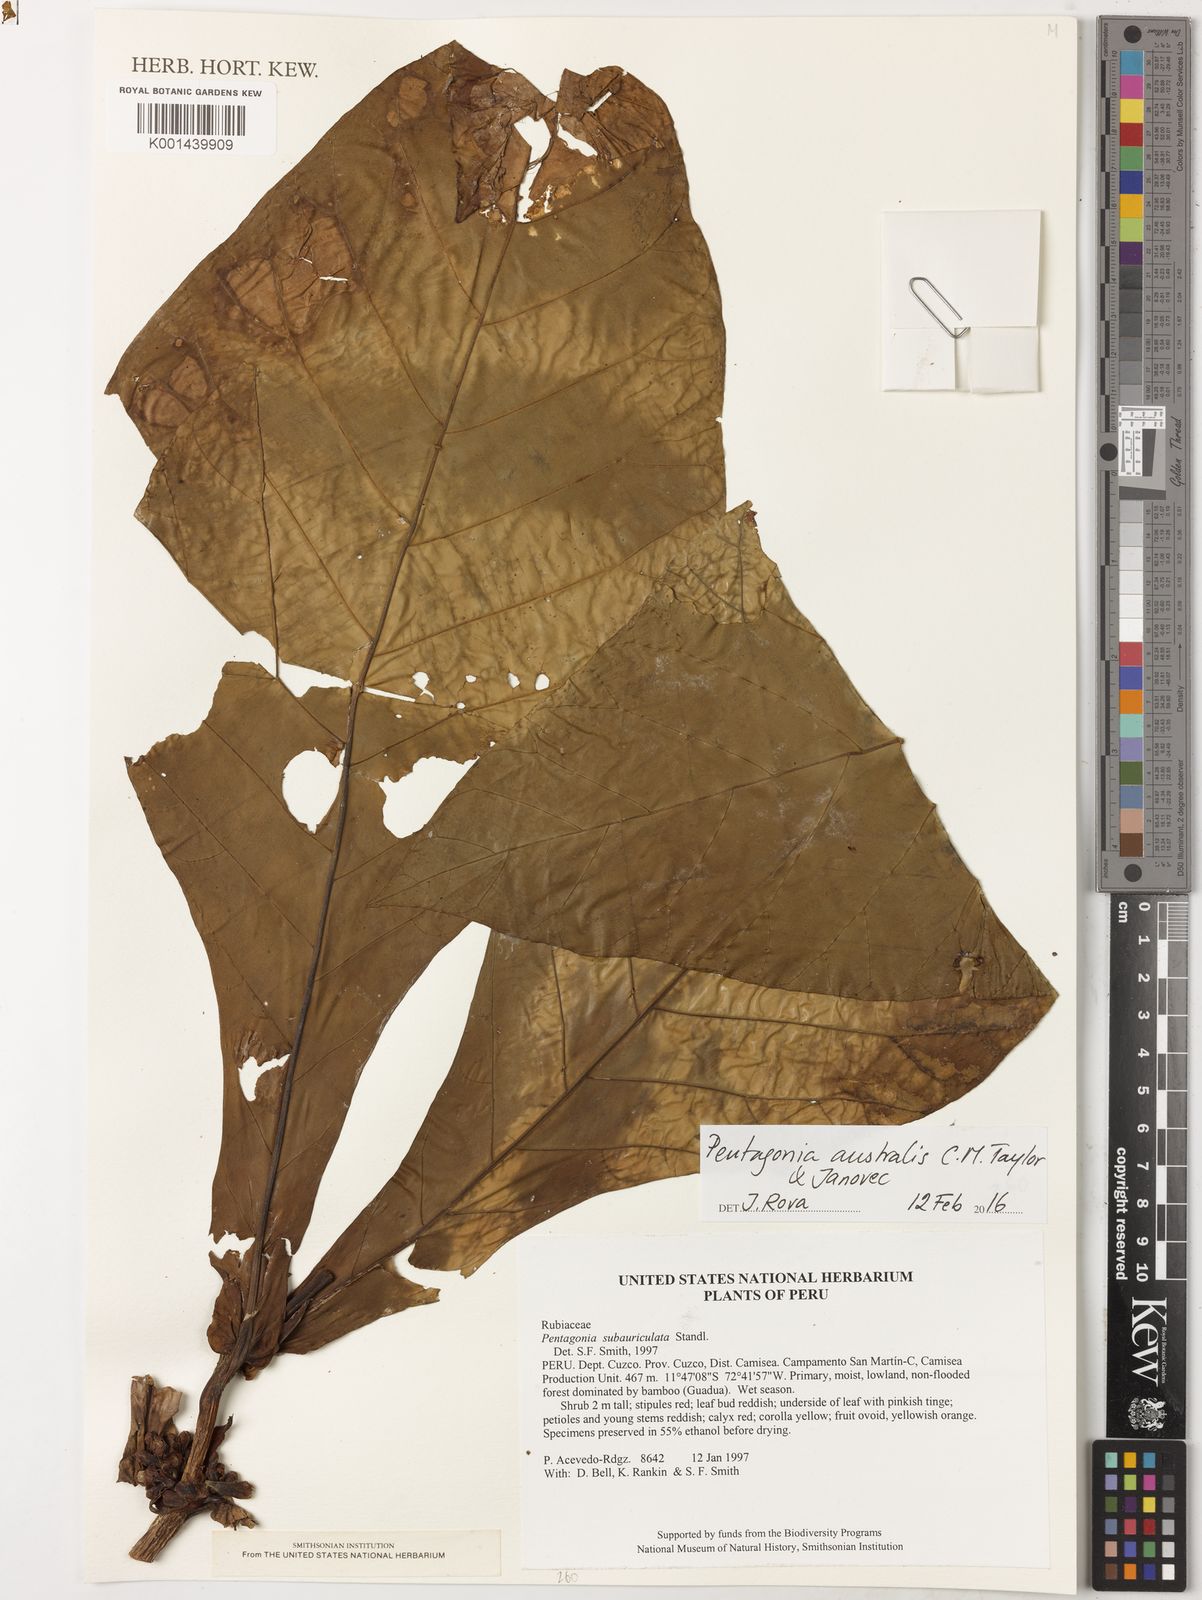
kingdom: Plantae
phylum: Tracheophyta
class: Magnoliopsida
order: Gentianales
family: Rubiaceae
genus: Pentagonia
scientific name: Pentagonia subauriculata
